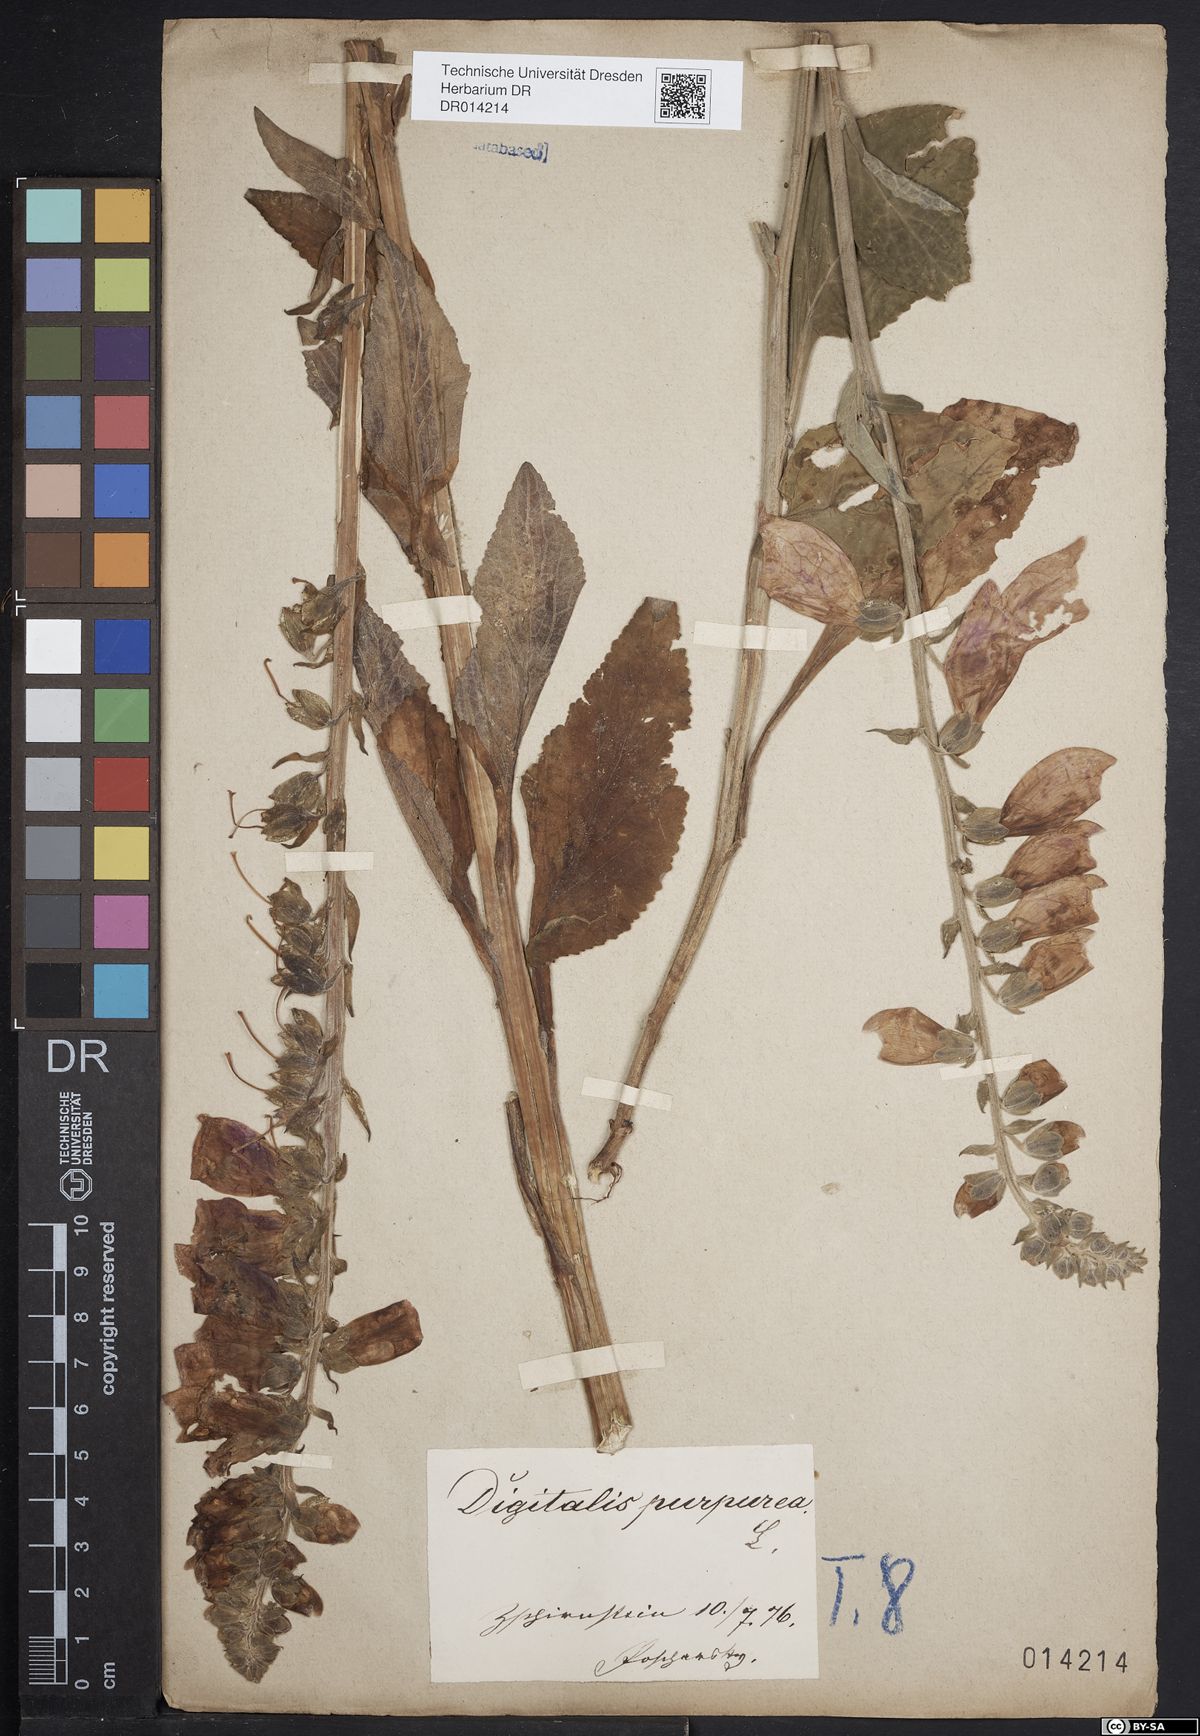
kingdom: Plantae
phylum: Tracheophyta
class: Magnoliopsida
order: Lamiales
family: Plantaginaceae
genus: Digitalis
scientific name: Digitalis purpurea
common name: Foxglove
